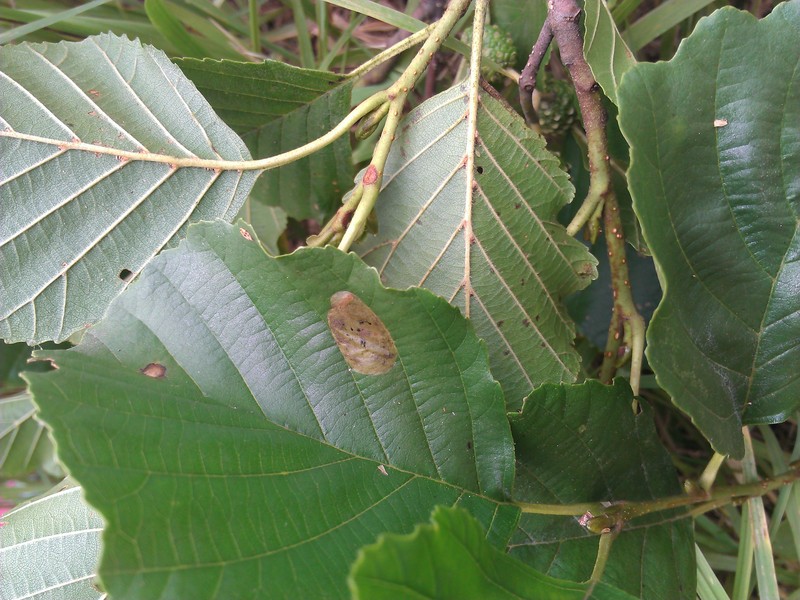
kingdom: Animalia
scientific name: Animalia
